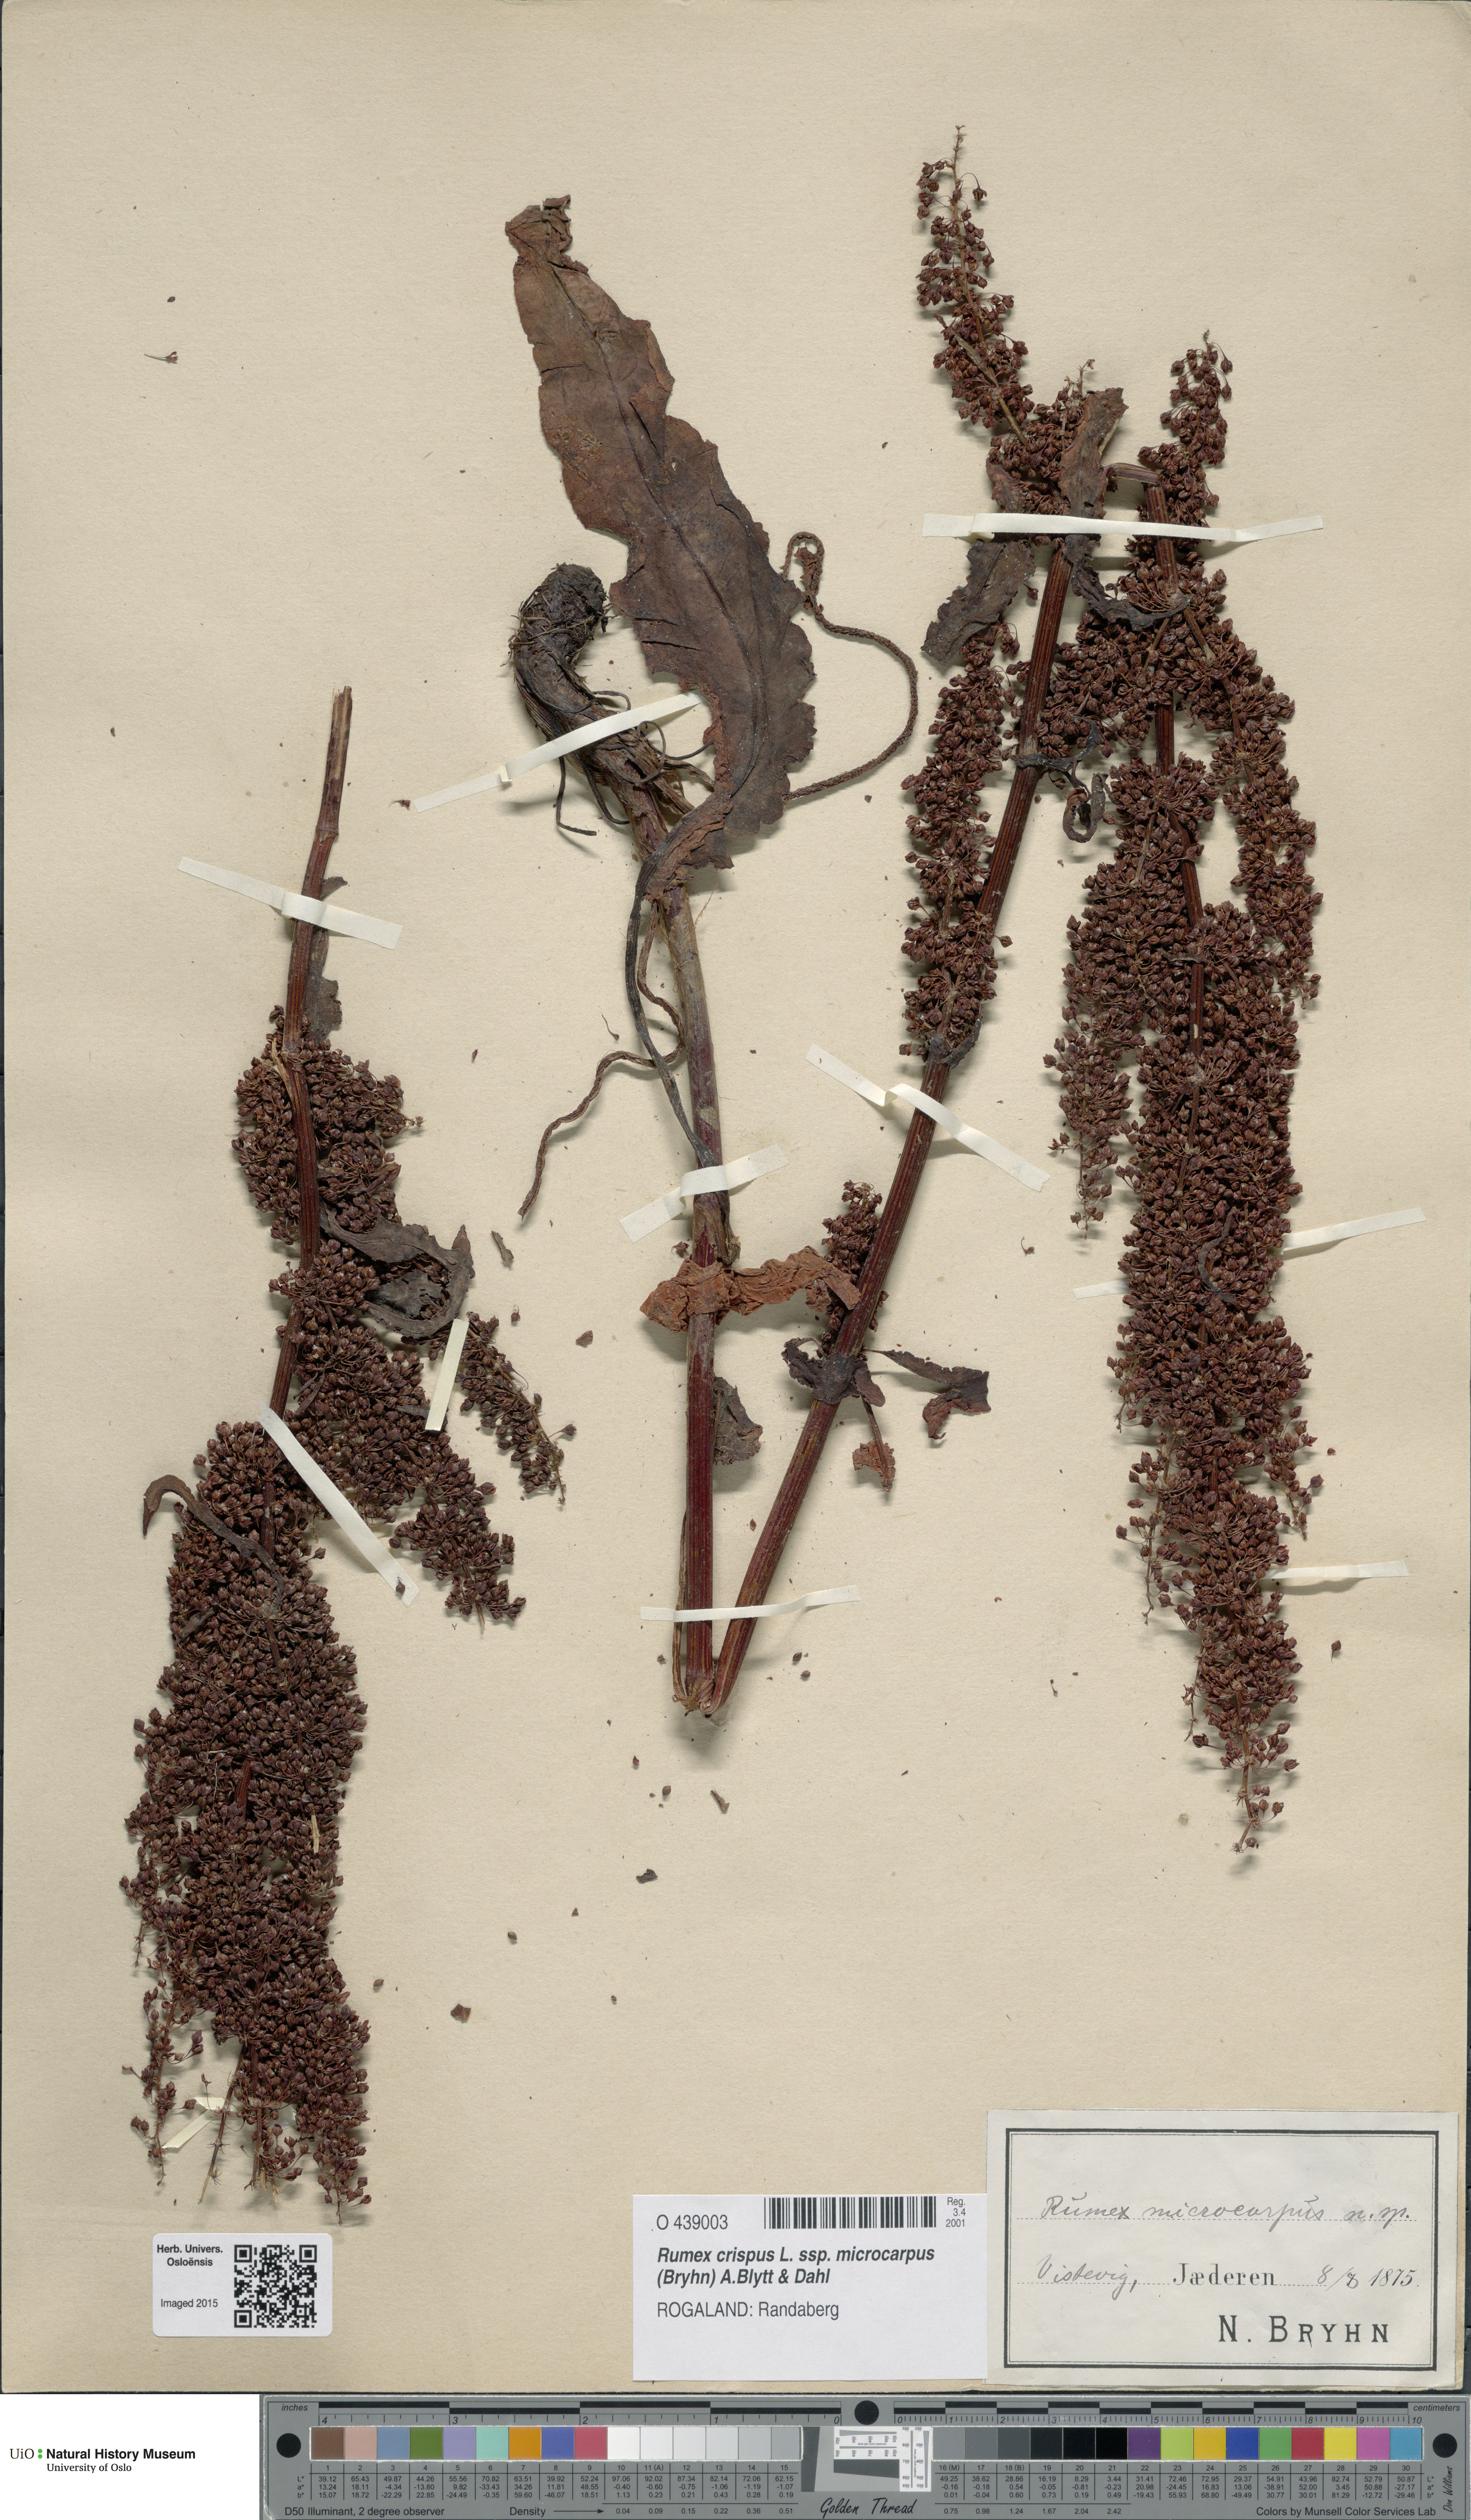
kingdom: Plantae
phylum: Tracheophyta
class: Magnoliopsida
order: Caryophyllales
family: Polygonaceae
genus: Rumex
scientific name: Rumex bryhnii
